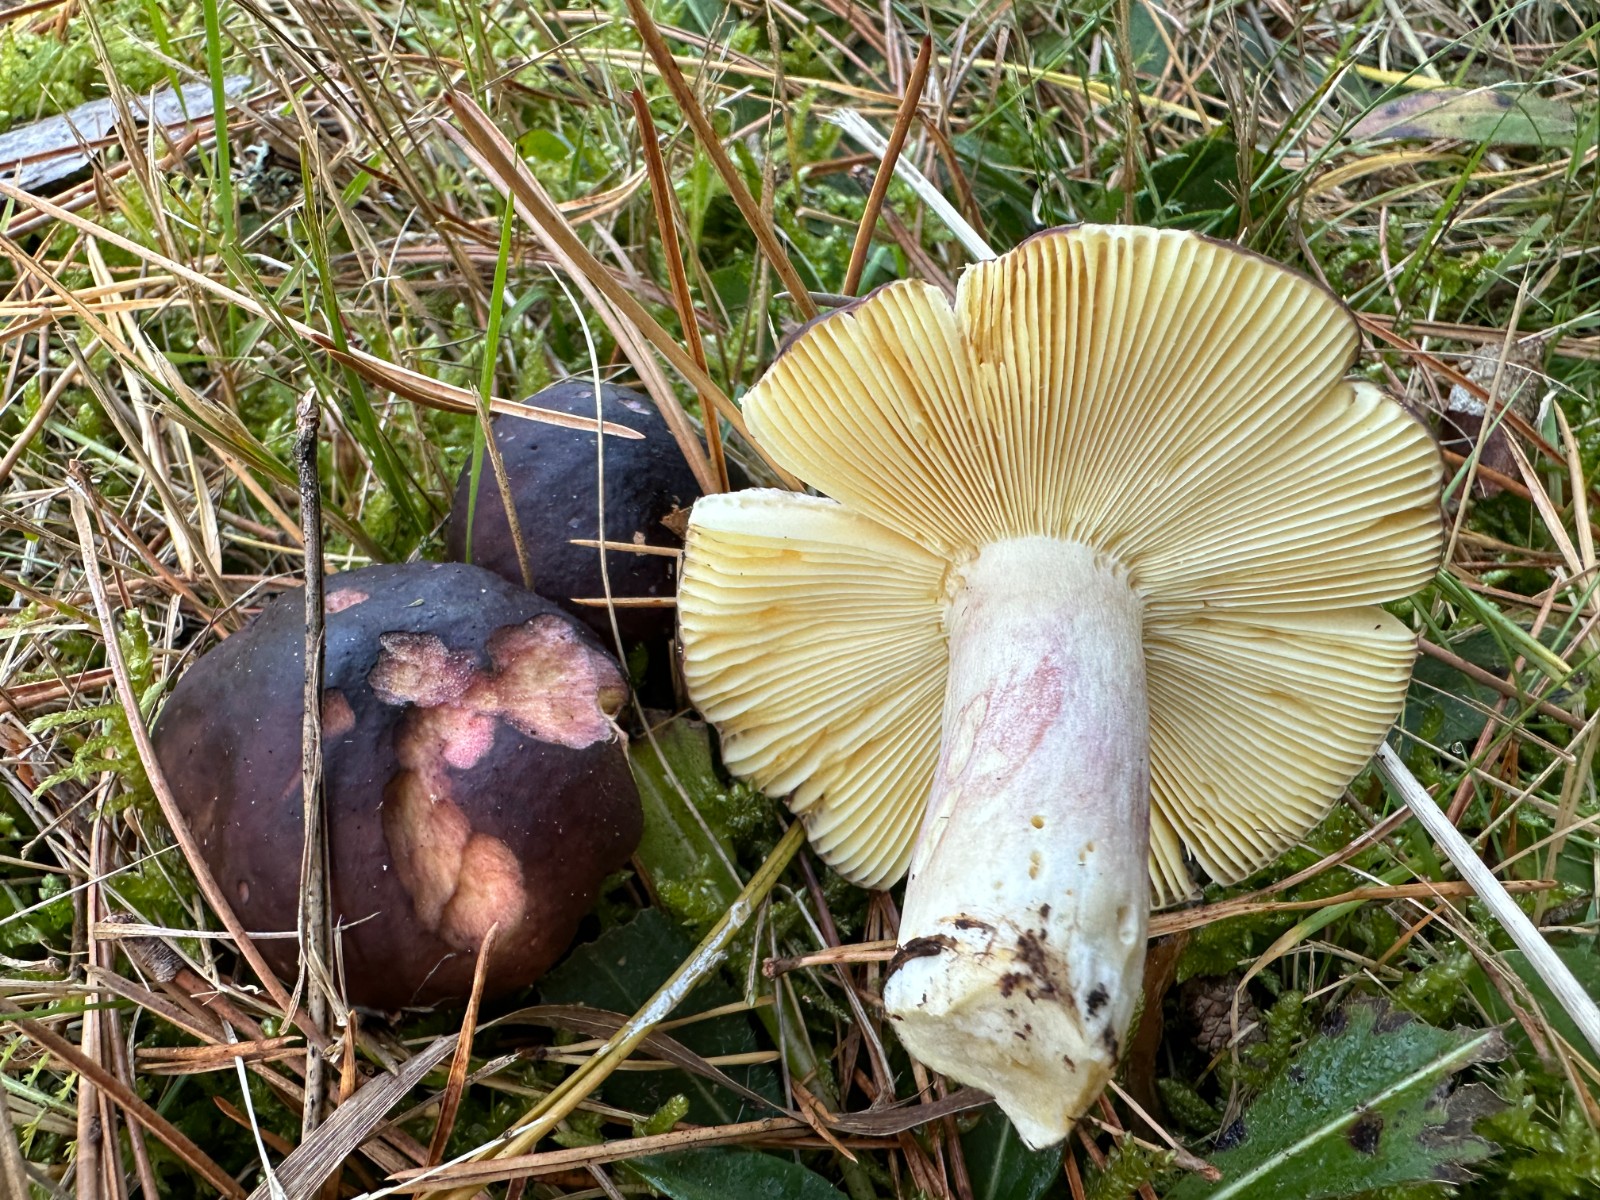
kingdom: Fungi
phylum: Basidiomycota
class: Agaricomycetes
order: Russulales
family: Russulaceae
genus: Russula
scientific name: Russula sardonia
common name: citronbladet skørhat
